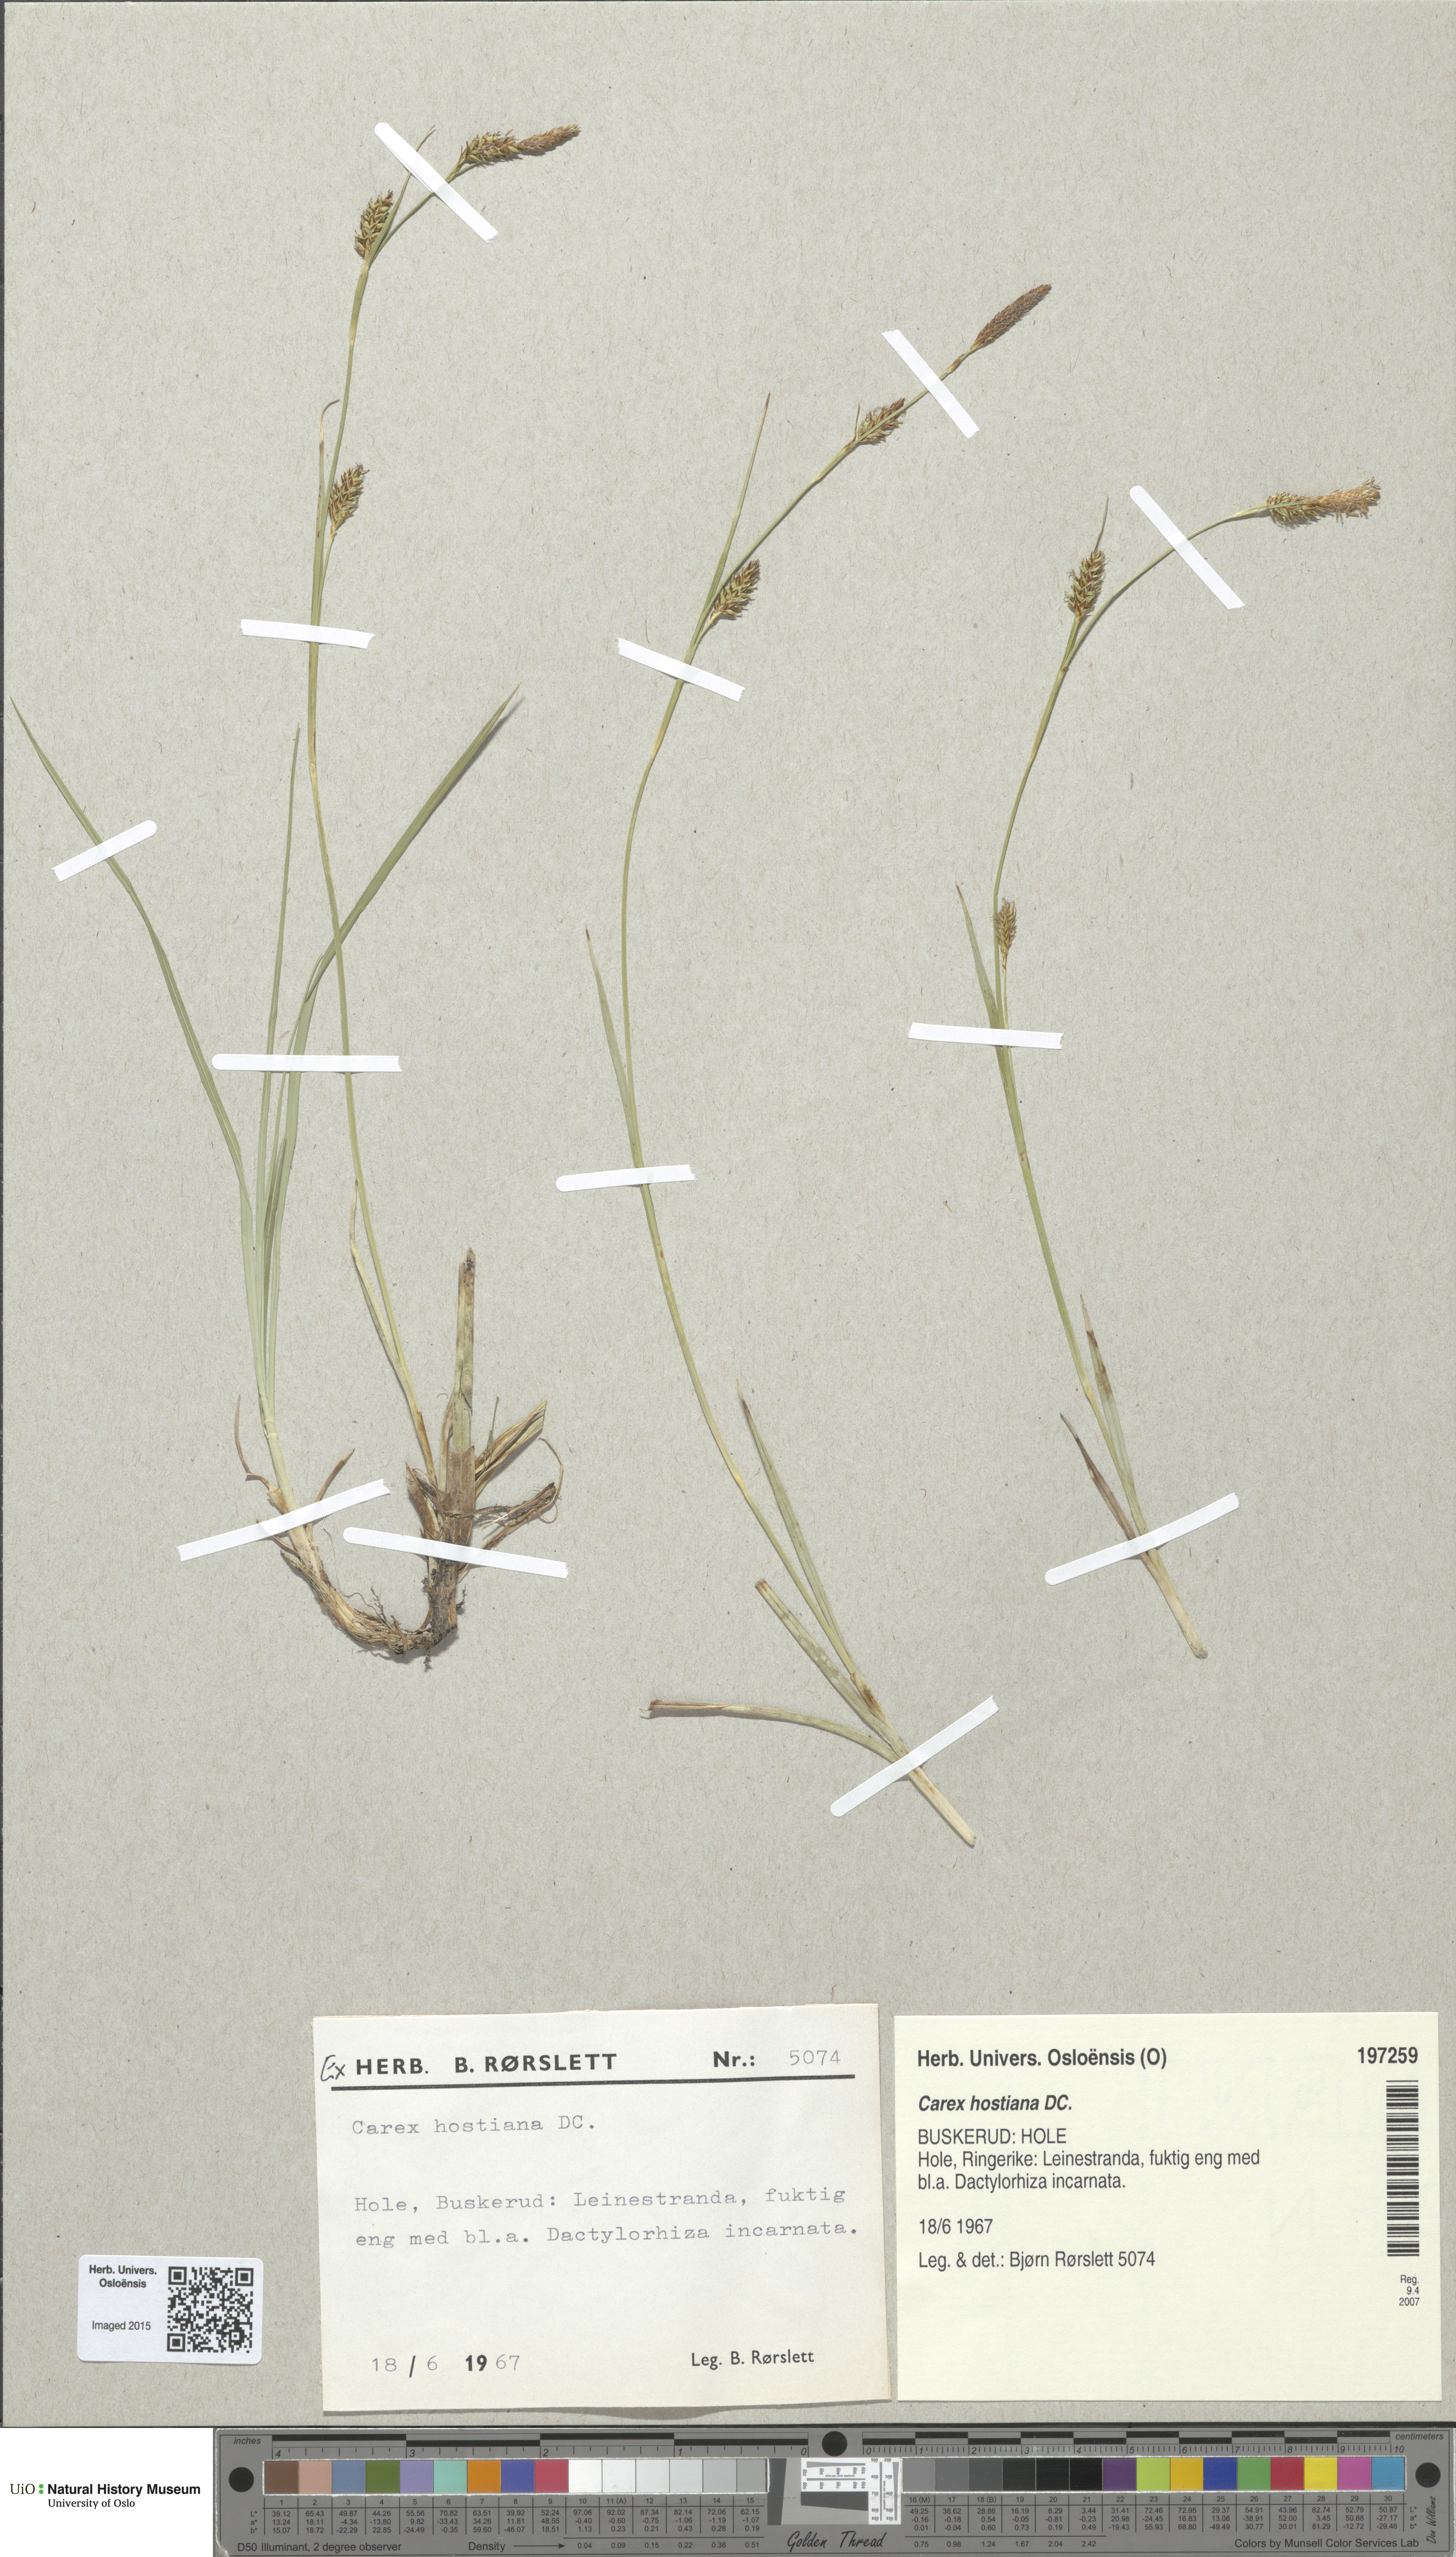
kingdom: Plantae
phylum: Tracheophyta
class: Liliopsida
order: Poales
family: Cyperaceae
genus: Carex
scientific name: Carex hostiana
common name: Tawny sedge
